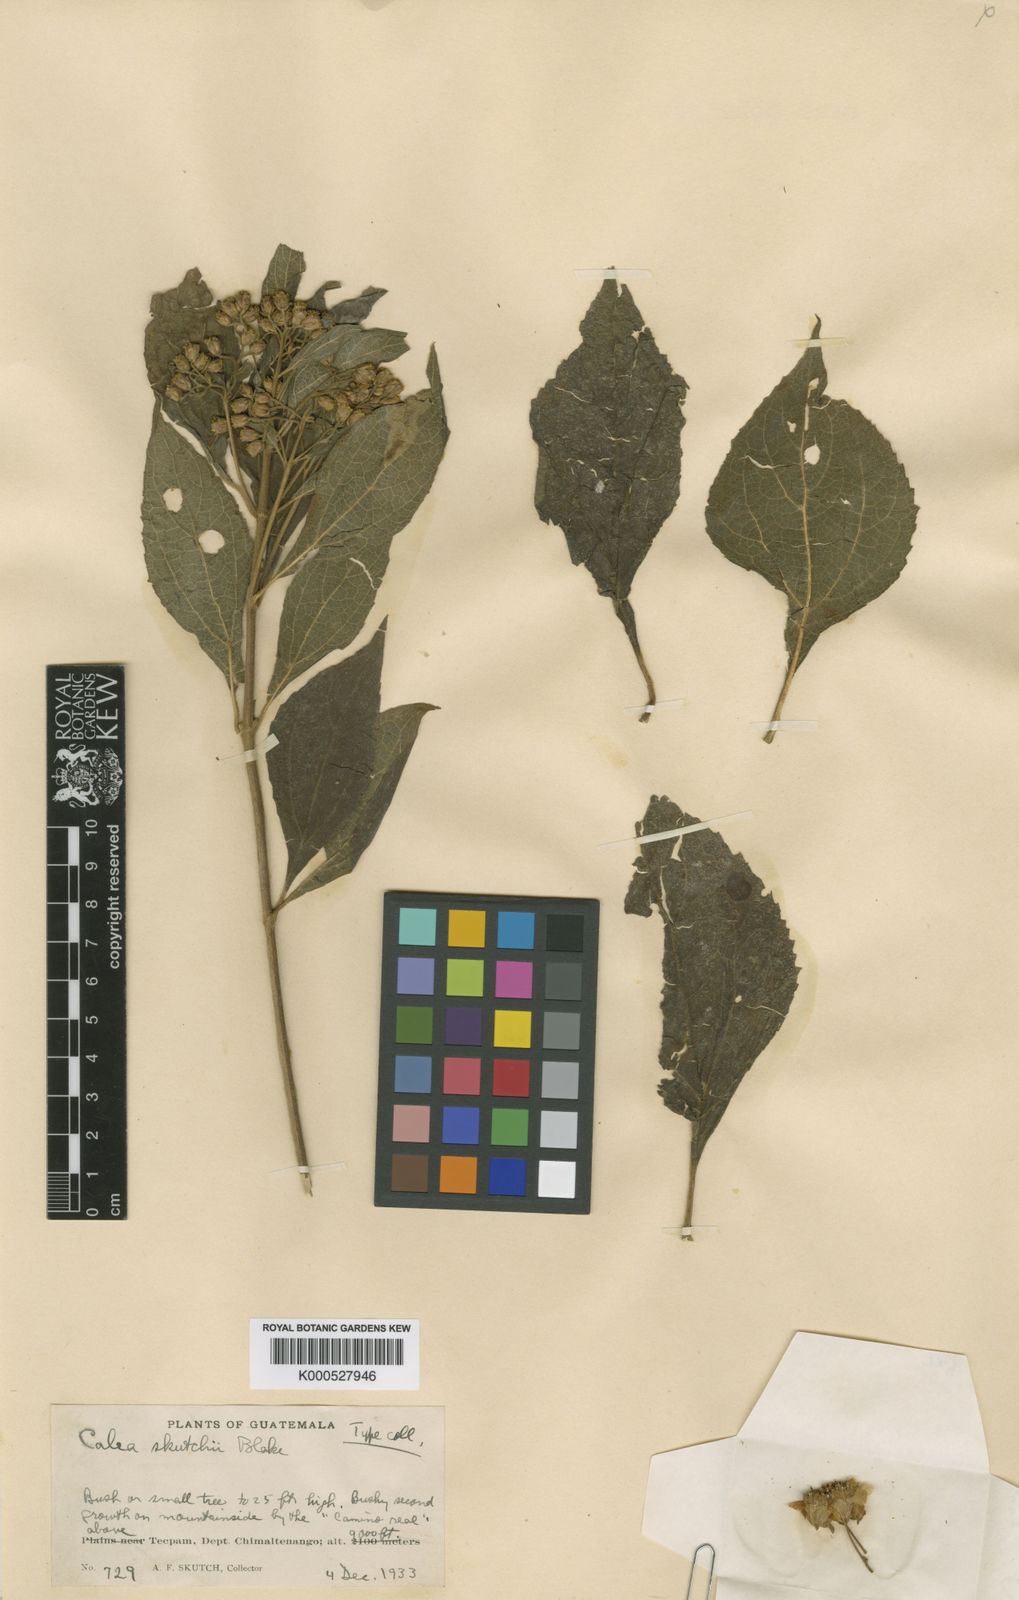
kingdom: Plantae
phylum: Tracheophyta
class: Magnoliopsida
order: Asterales
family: Asteraceae
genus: Squamopappus
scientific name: Squamopappus skutchii
